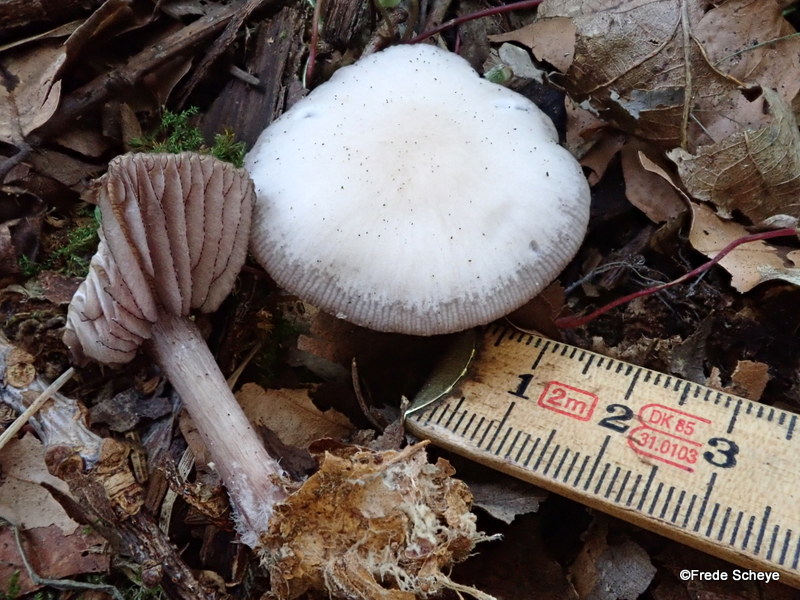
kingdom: Fungi
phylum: Basidiomycota
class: Agaricomycetes
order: Agaricales
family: Mycenaceae
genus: Mycena
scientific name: Mycena pelianthina
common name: mørkbladet huesvamp
